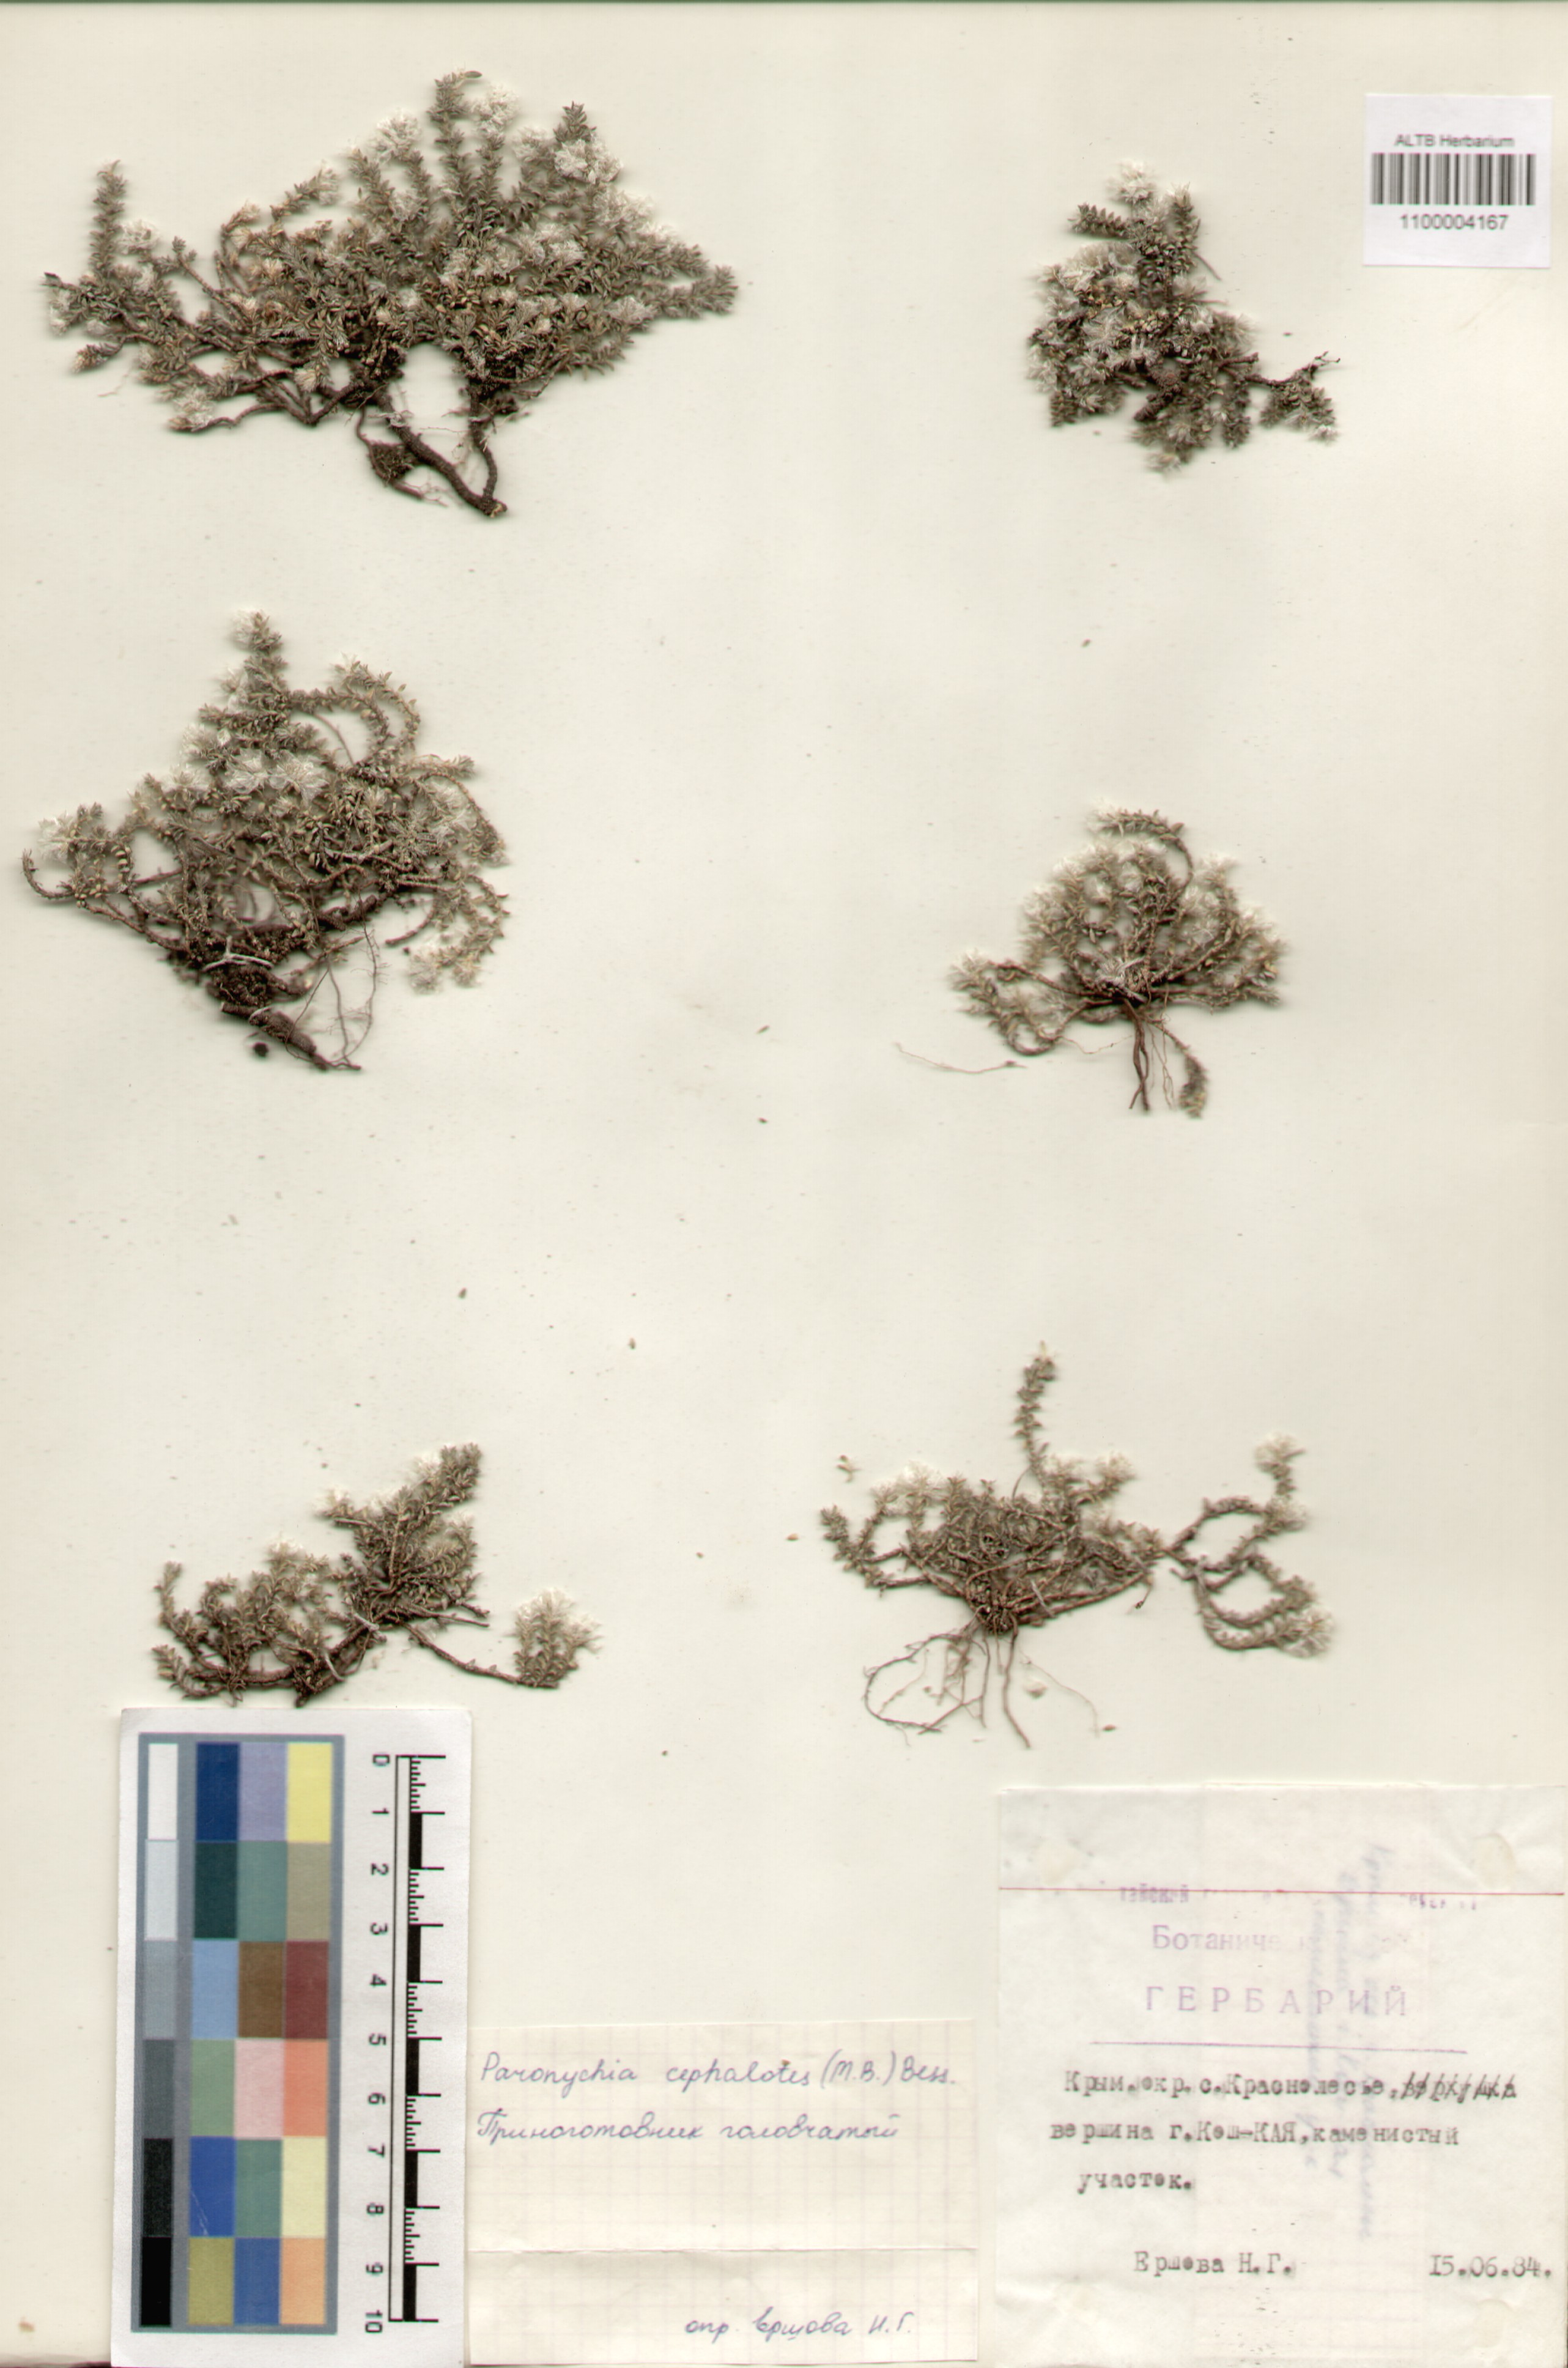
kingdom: Plantae
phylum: Tracheophyta
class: Magnoliopsida
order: Caryophyllales
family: Caryophyllaceae
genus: Paronychia
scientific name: Paronychia cephalotes
